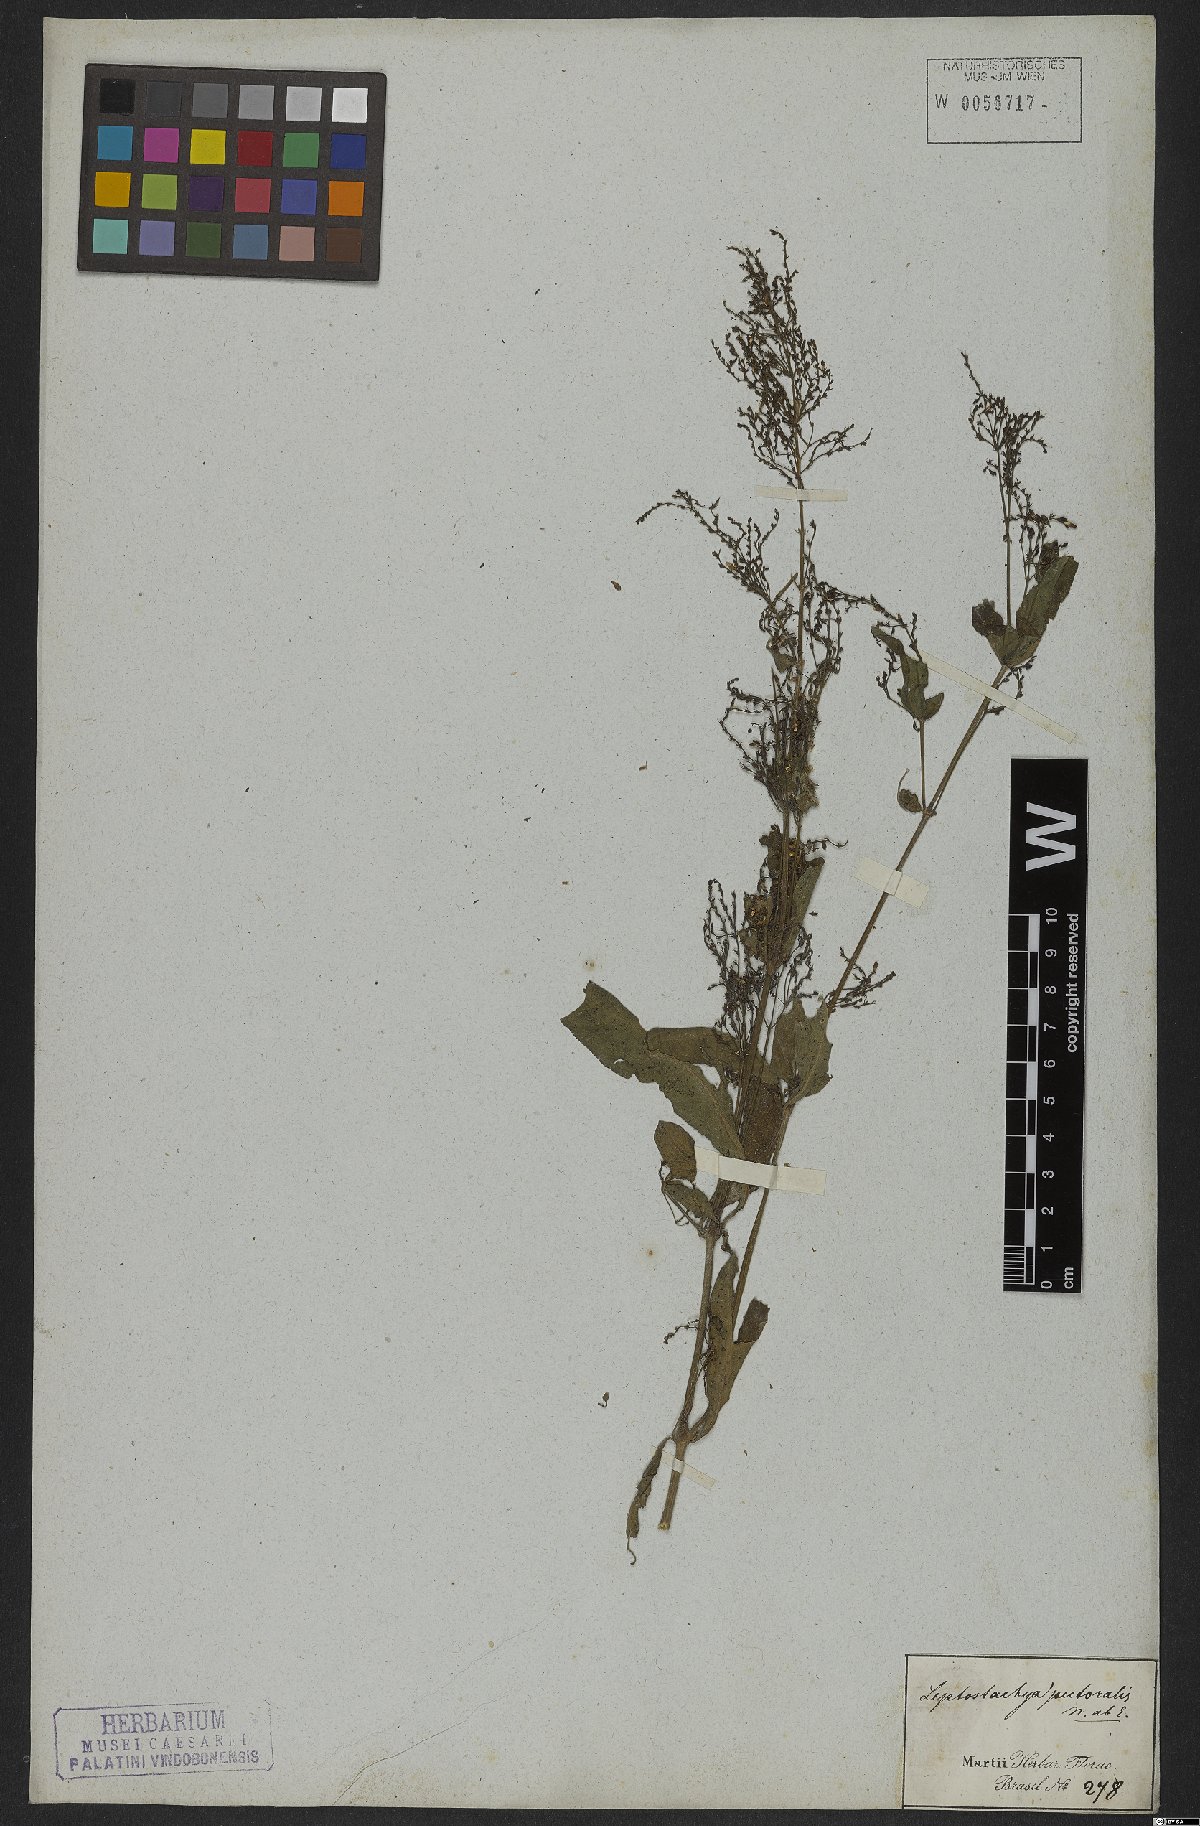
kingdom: Plantae
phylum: Tracheophyta
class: Magnoliopsida
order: Lamiales
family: Acanthaceae
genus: Dianthera
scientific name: Dianthera pectoralis
